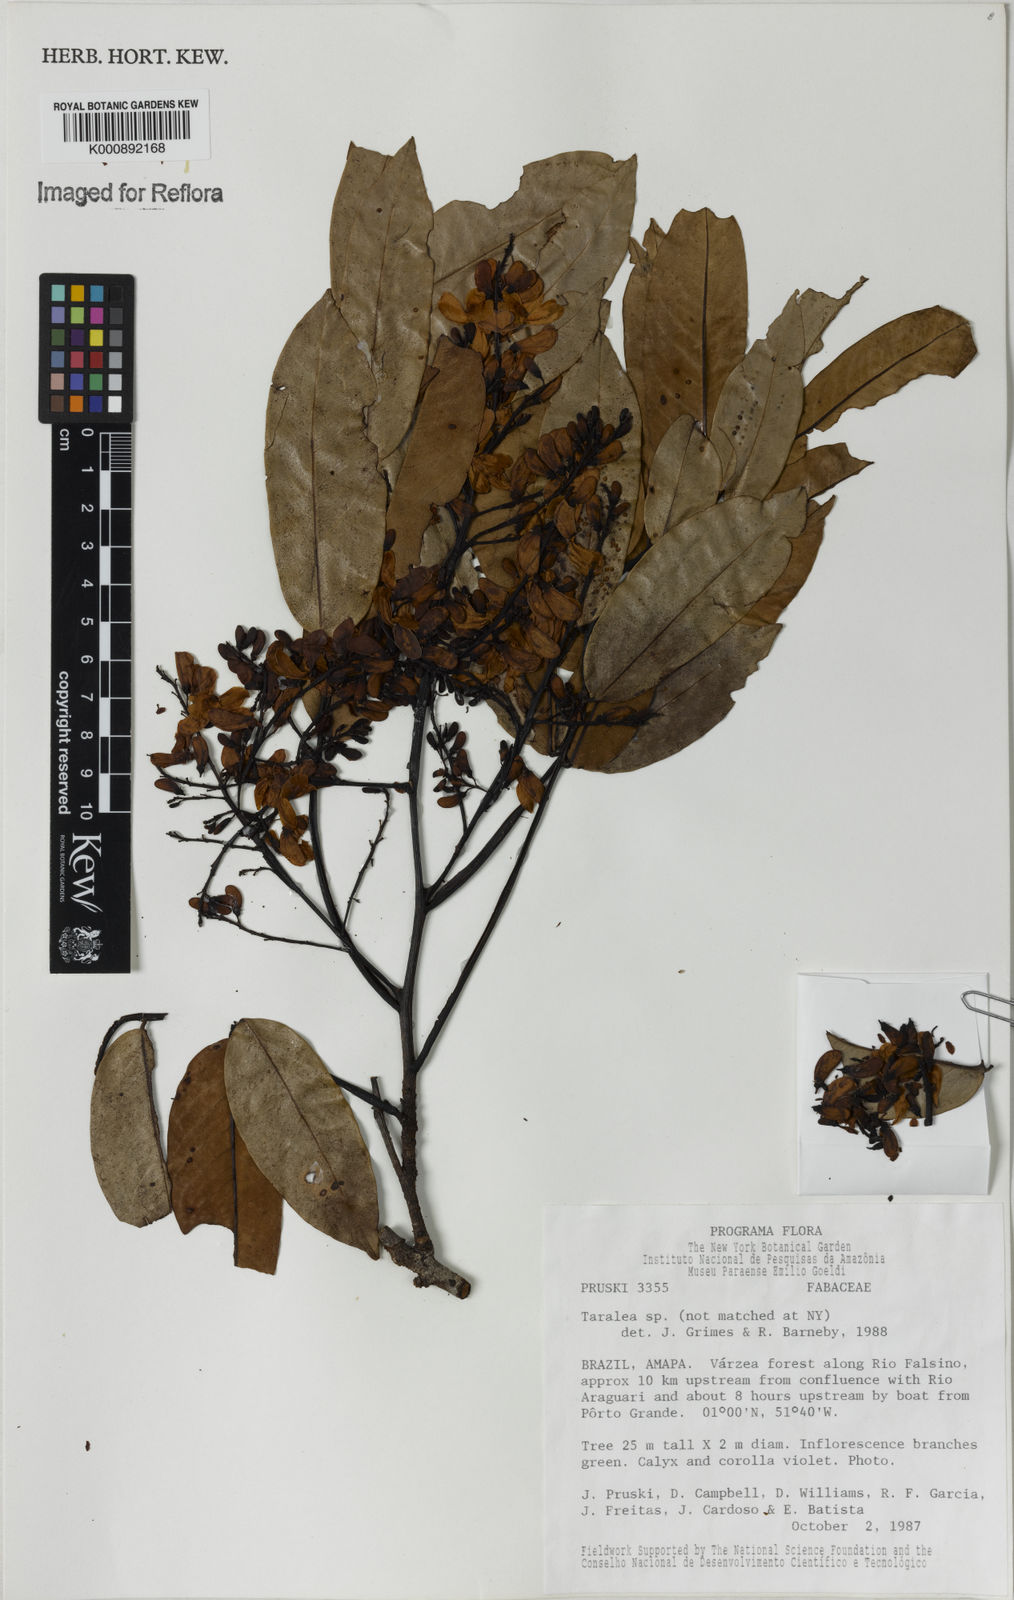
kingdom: Plantae
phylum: Tracheophyta
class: Magnoliopsida
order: Fabales
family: Fabaceae
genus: Taralea
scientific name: Taralea
